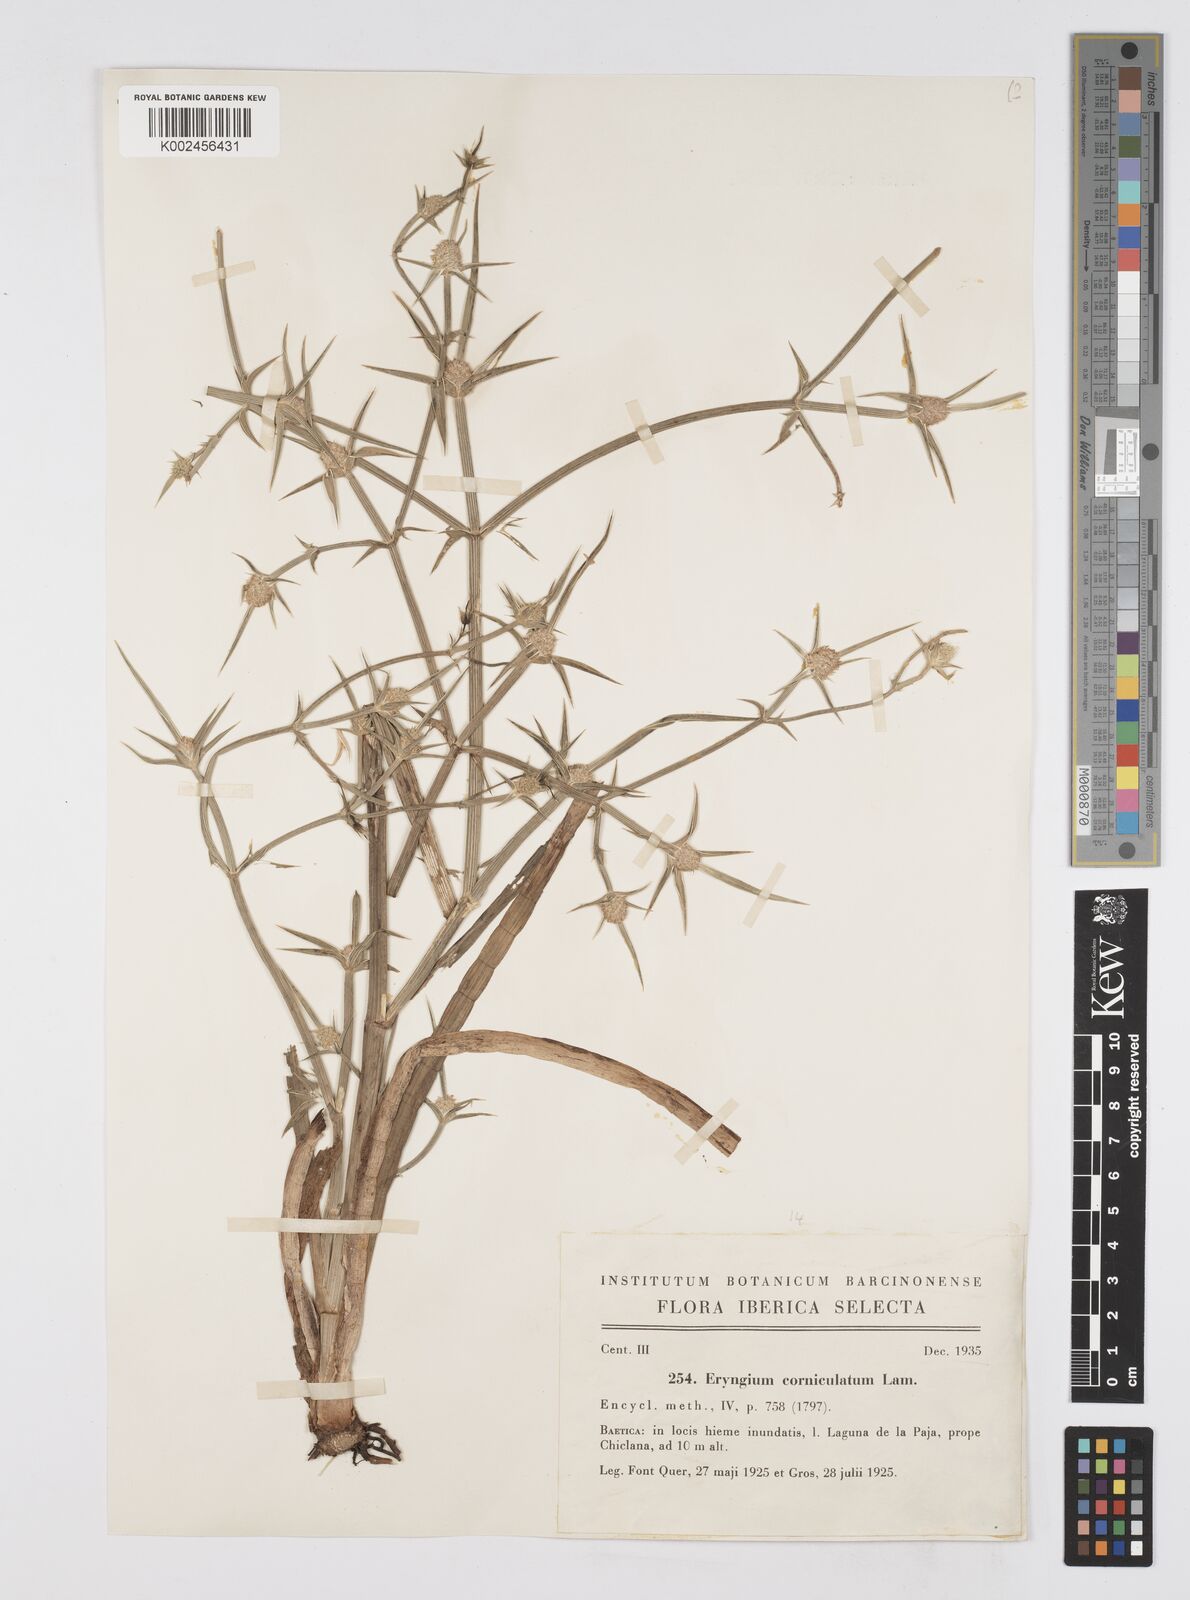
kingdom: Plantae
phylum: Tracheophyta
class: Magnoliopsida
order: Apiales
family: Apiaceae
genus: Eryngium
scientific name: Eryngium corniculatum
